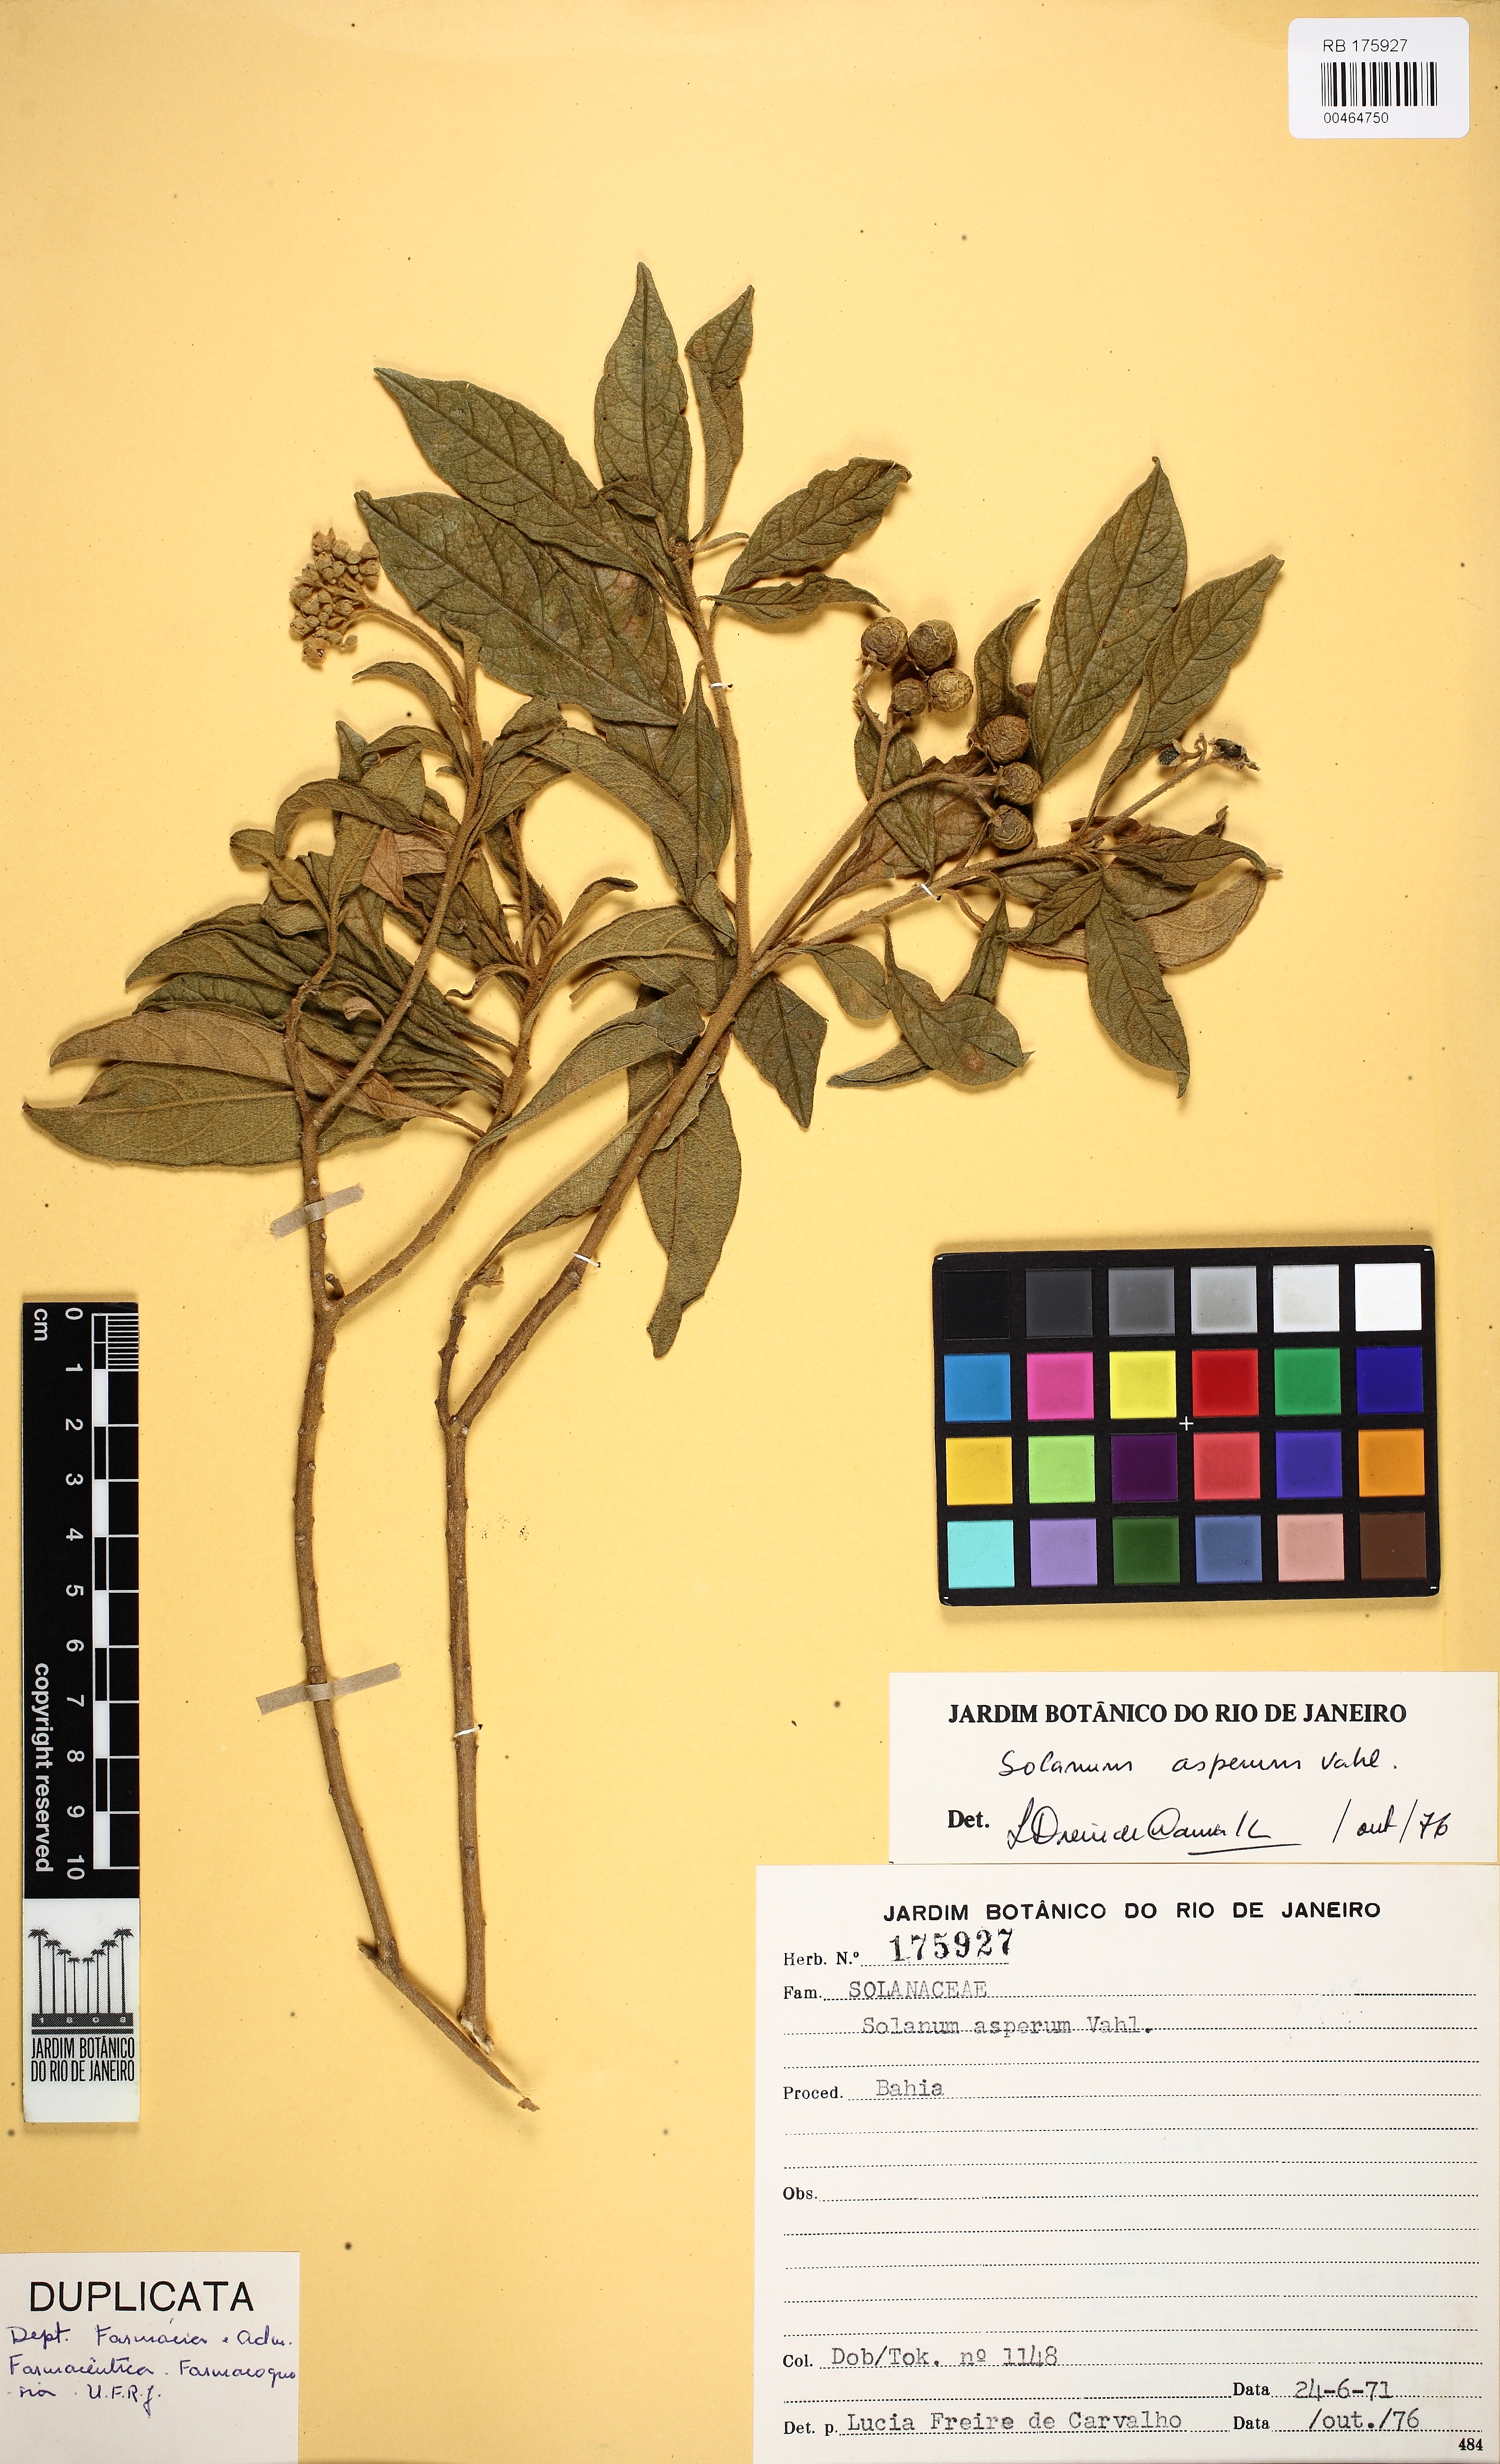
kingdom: Plantae
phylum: Tracheophyta
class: Magnoliopsida
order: Solanales
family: Solanaceae
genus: Solanum
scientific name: Solanum asperum
